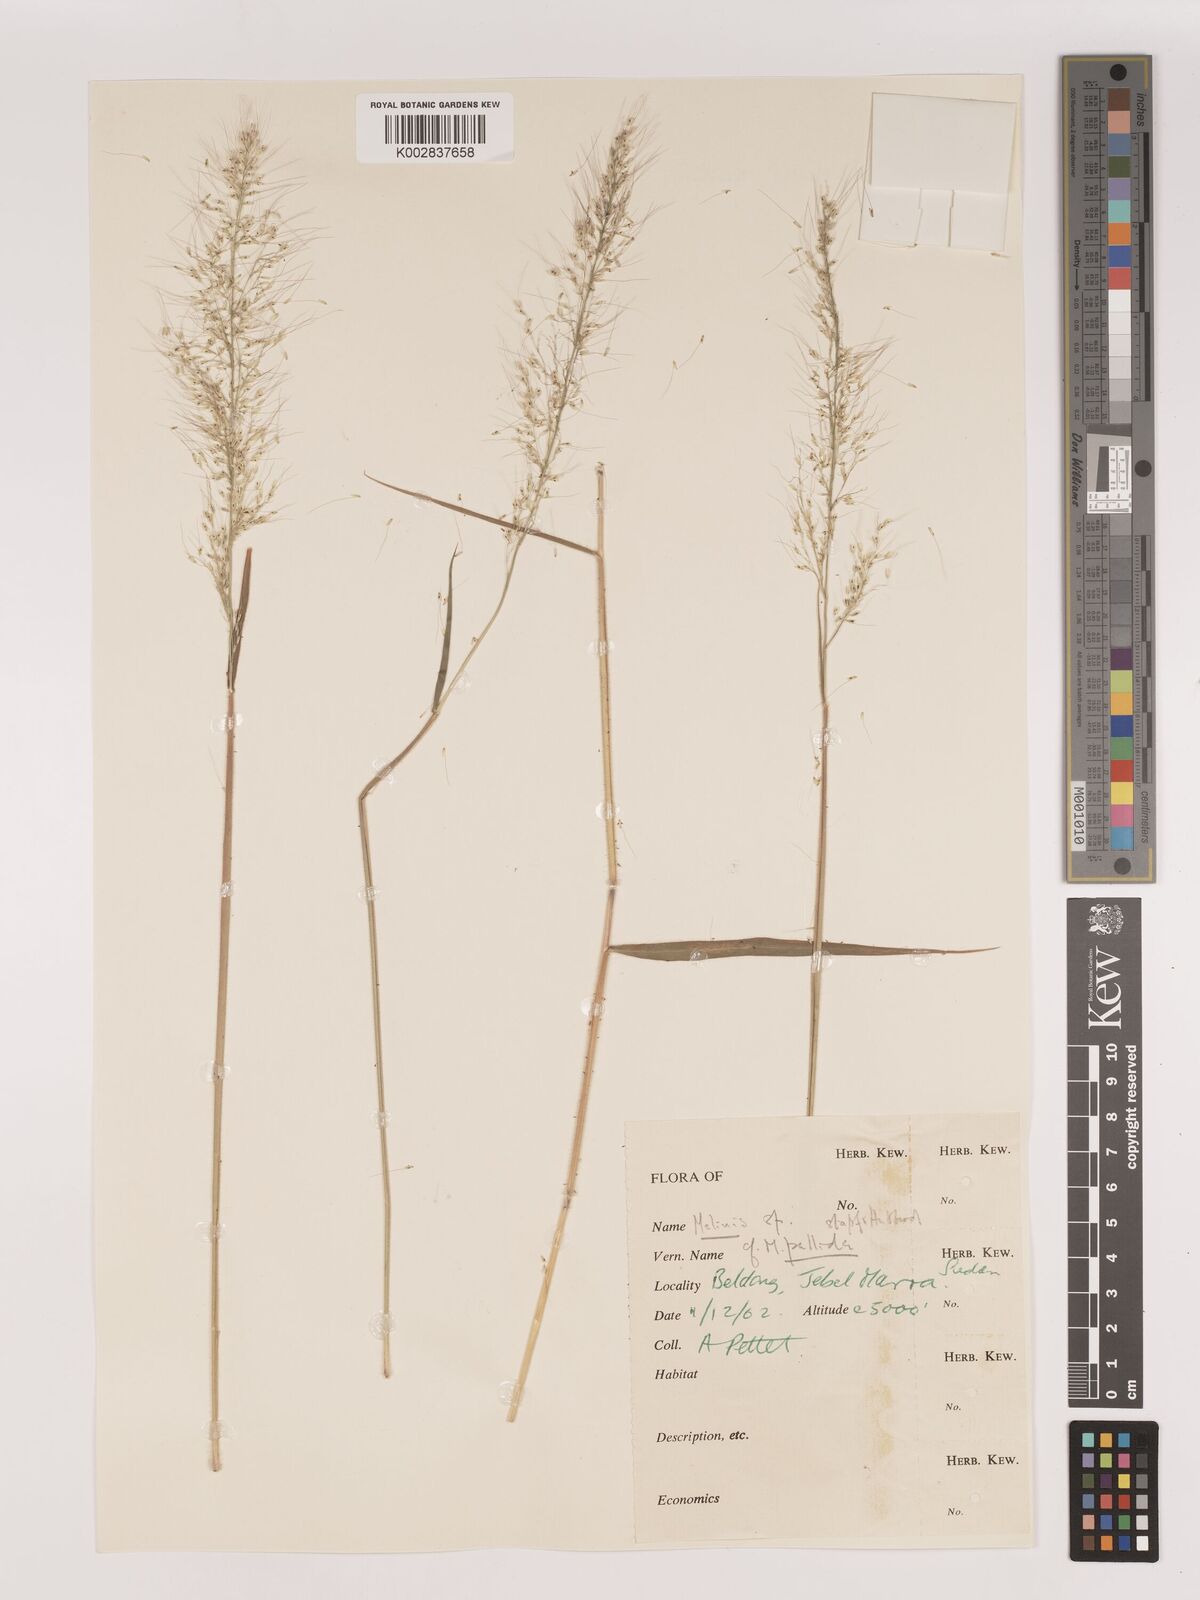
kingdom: Plantae
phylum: Tracheophyta
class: Liliopsida
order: Poales
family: Poaceae
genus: Melinis
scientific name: Melinis minutiflora
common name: Molassesgrass
